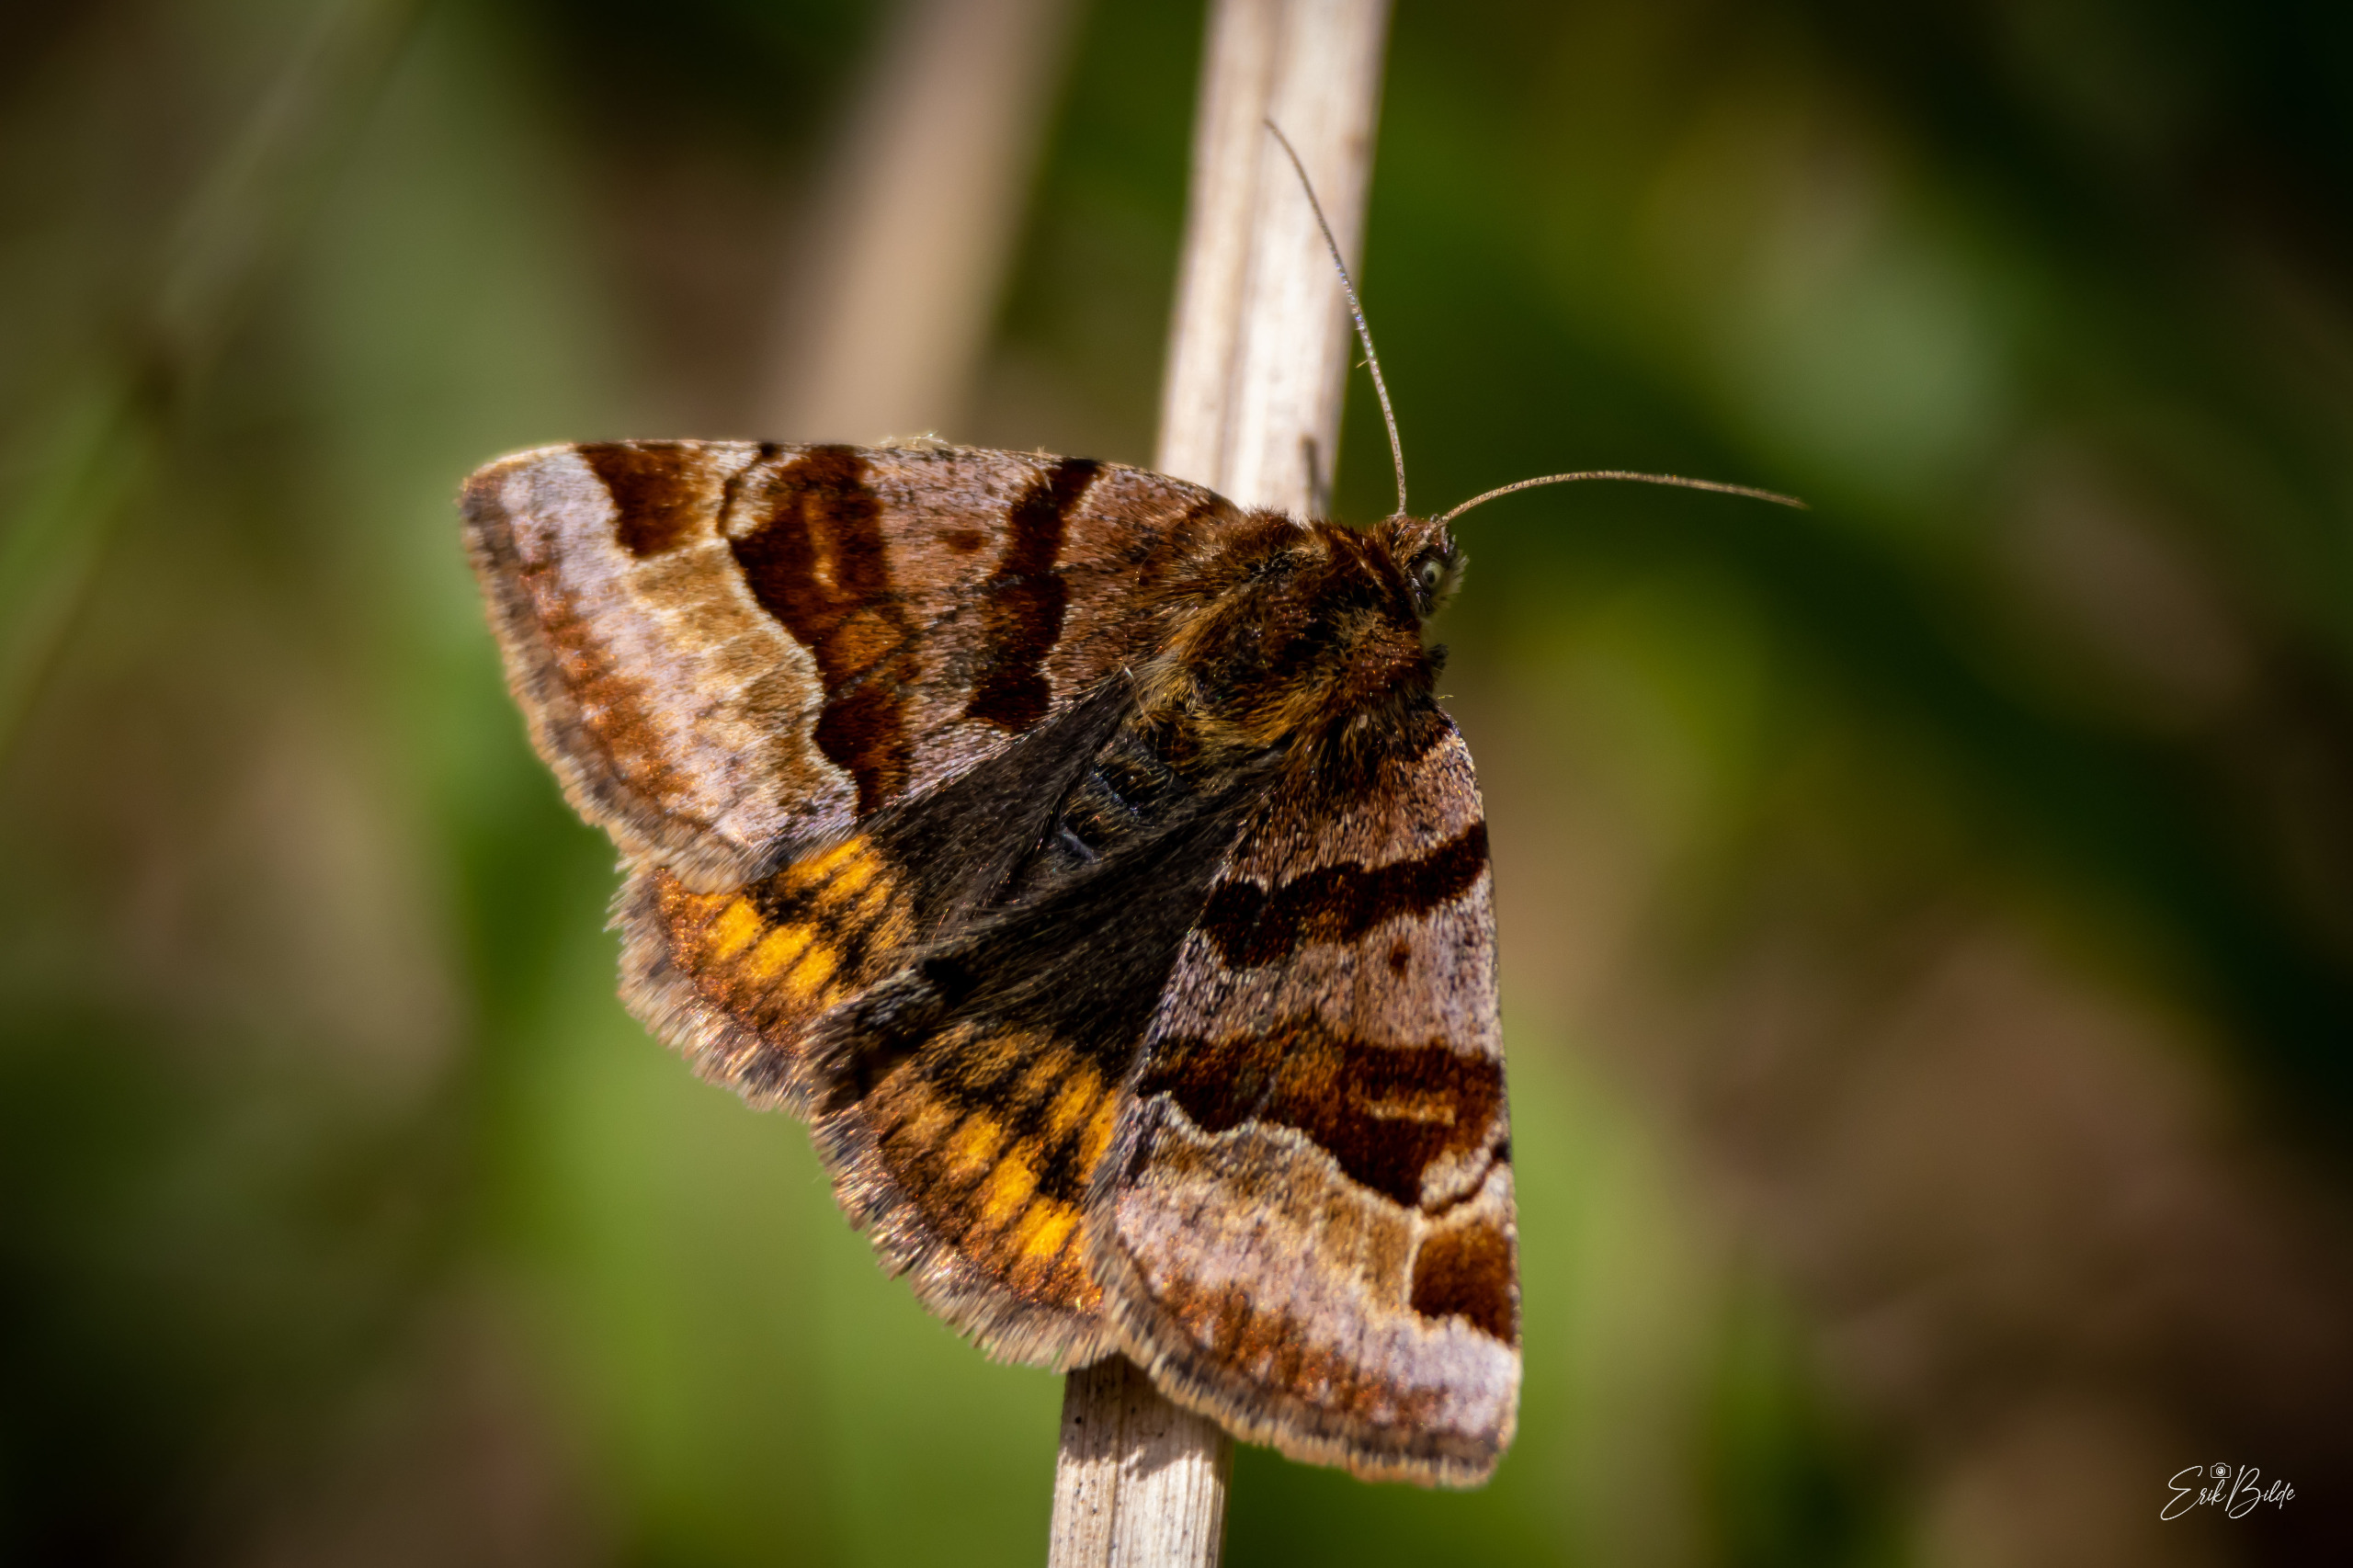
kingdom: Animalia
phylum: Arthropoda
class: Insecta
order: Lepidoptera
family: Erebidae
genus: Euclidia
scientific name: Euclidia glyphica
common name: Brun kløverugle
